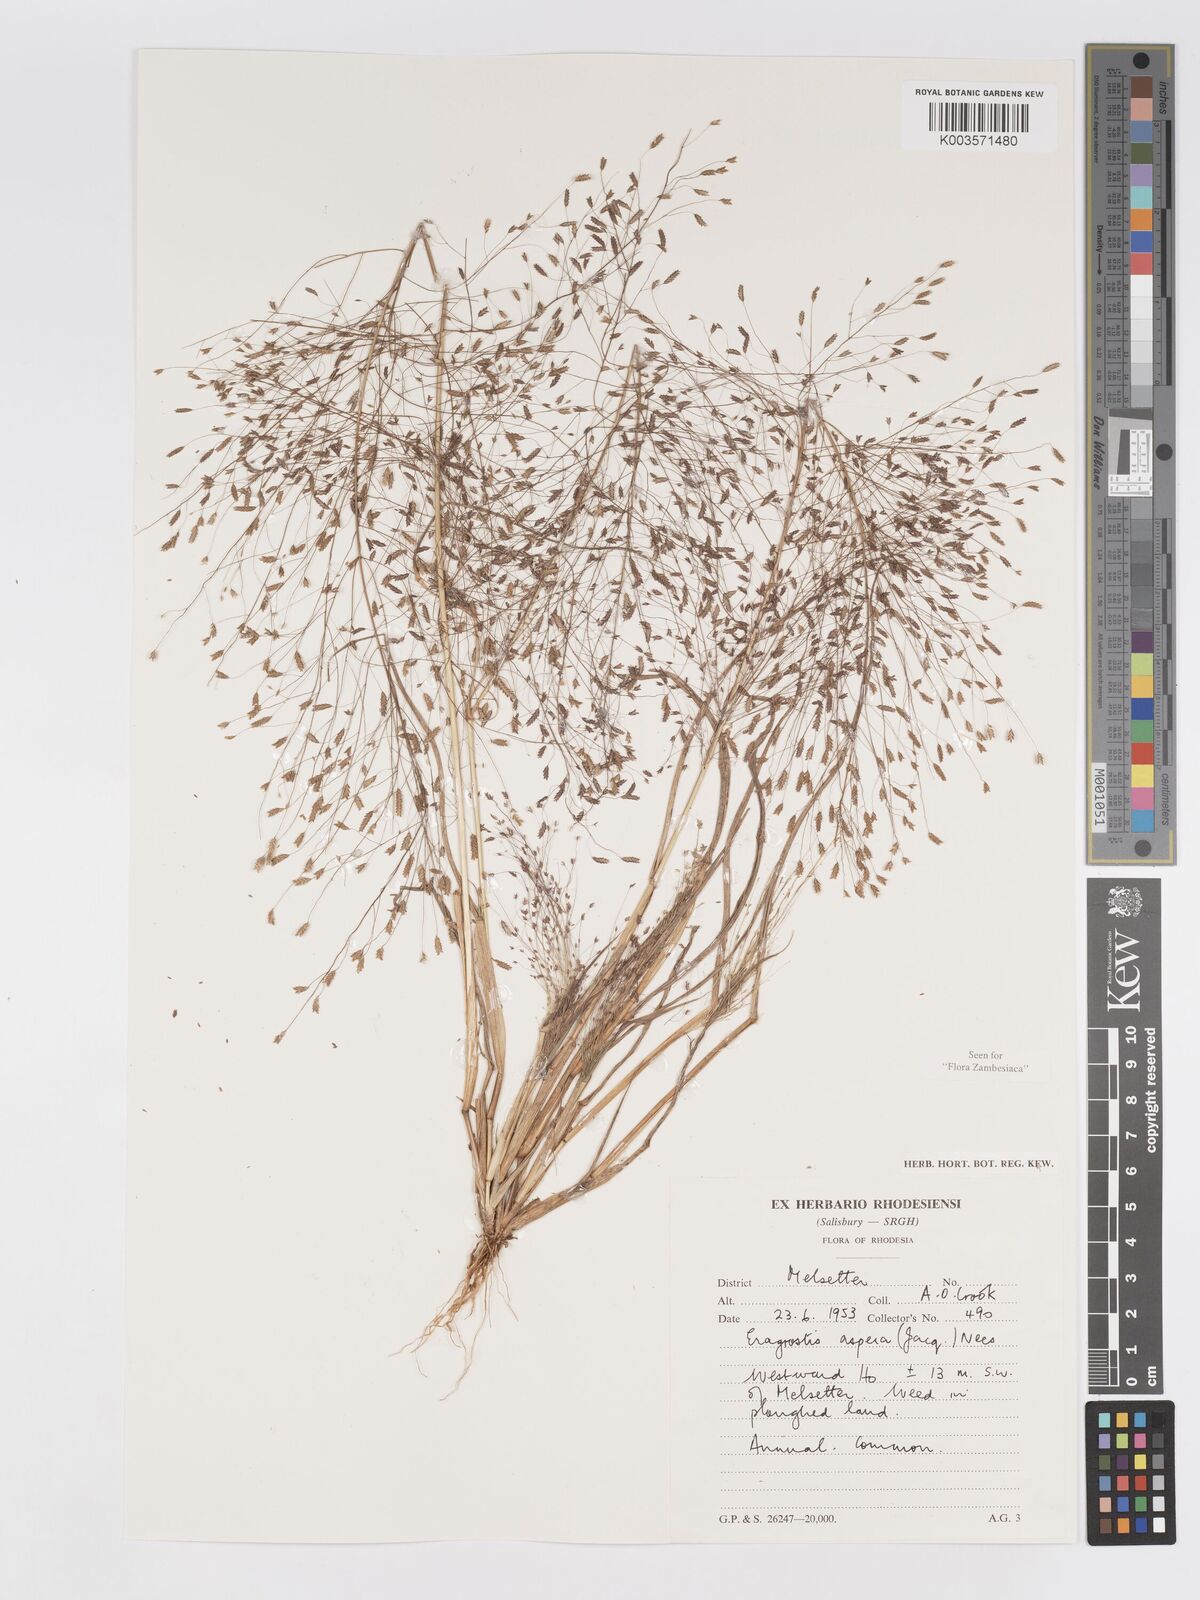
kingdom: Plantae
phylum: Tracheophyta
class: Liliopsida
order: Poales
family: Poaceae
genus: Eragrostis
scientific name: Eragrostis aspera
